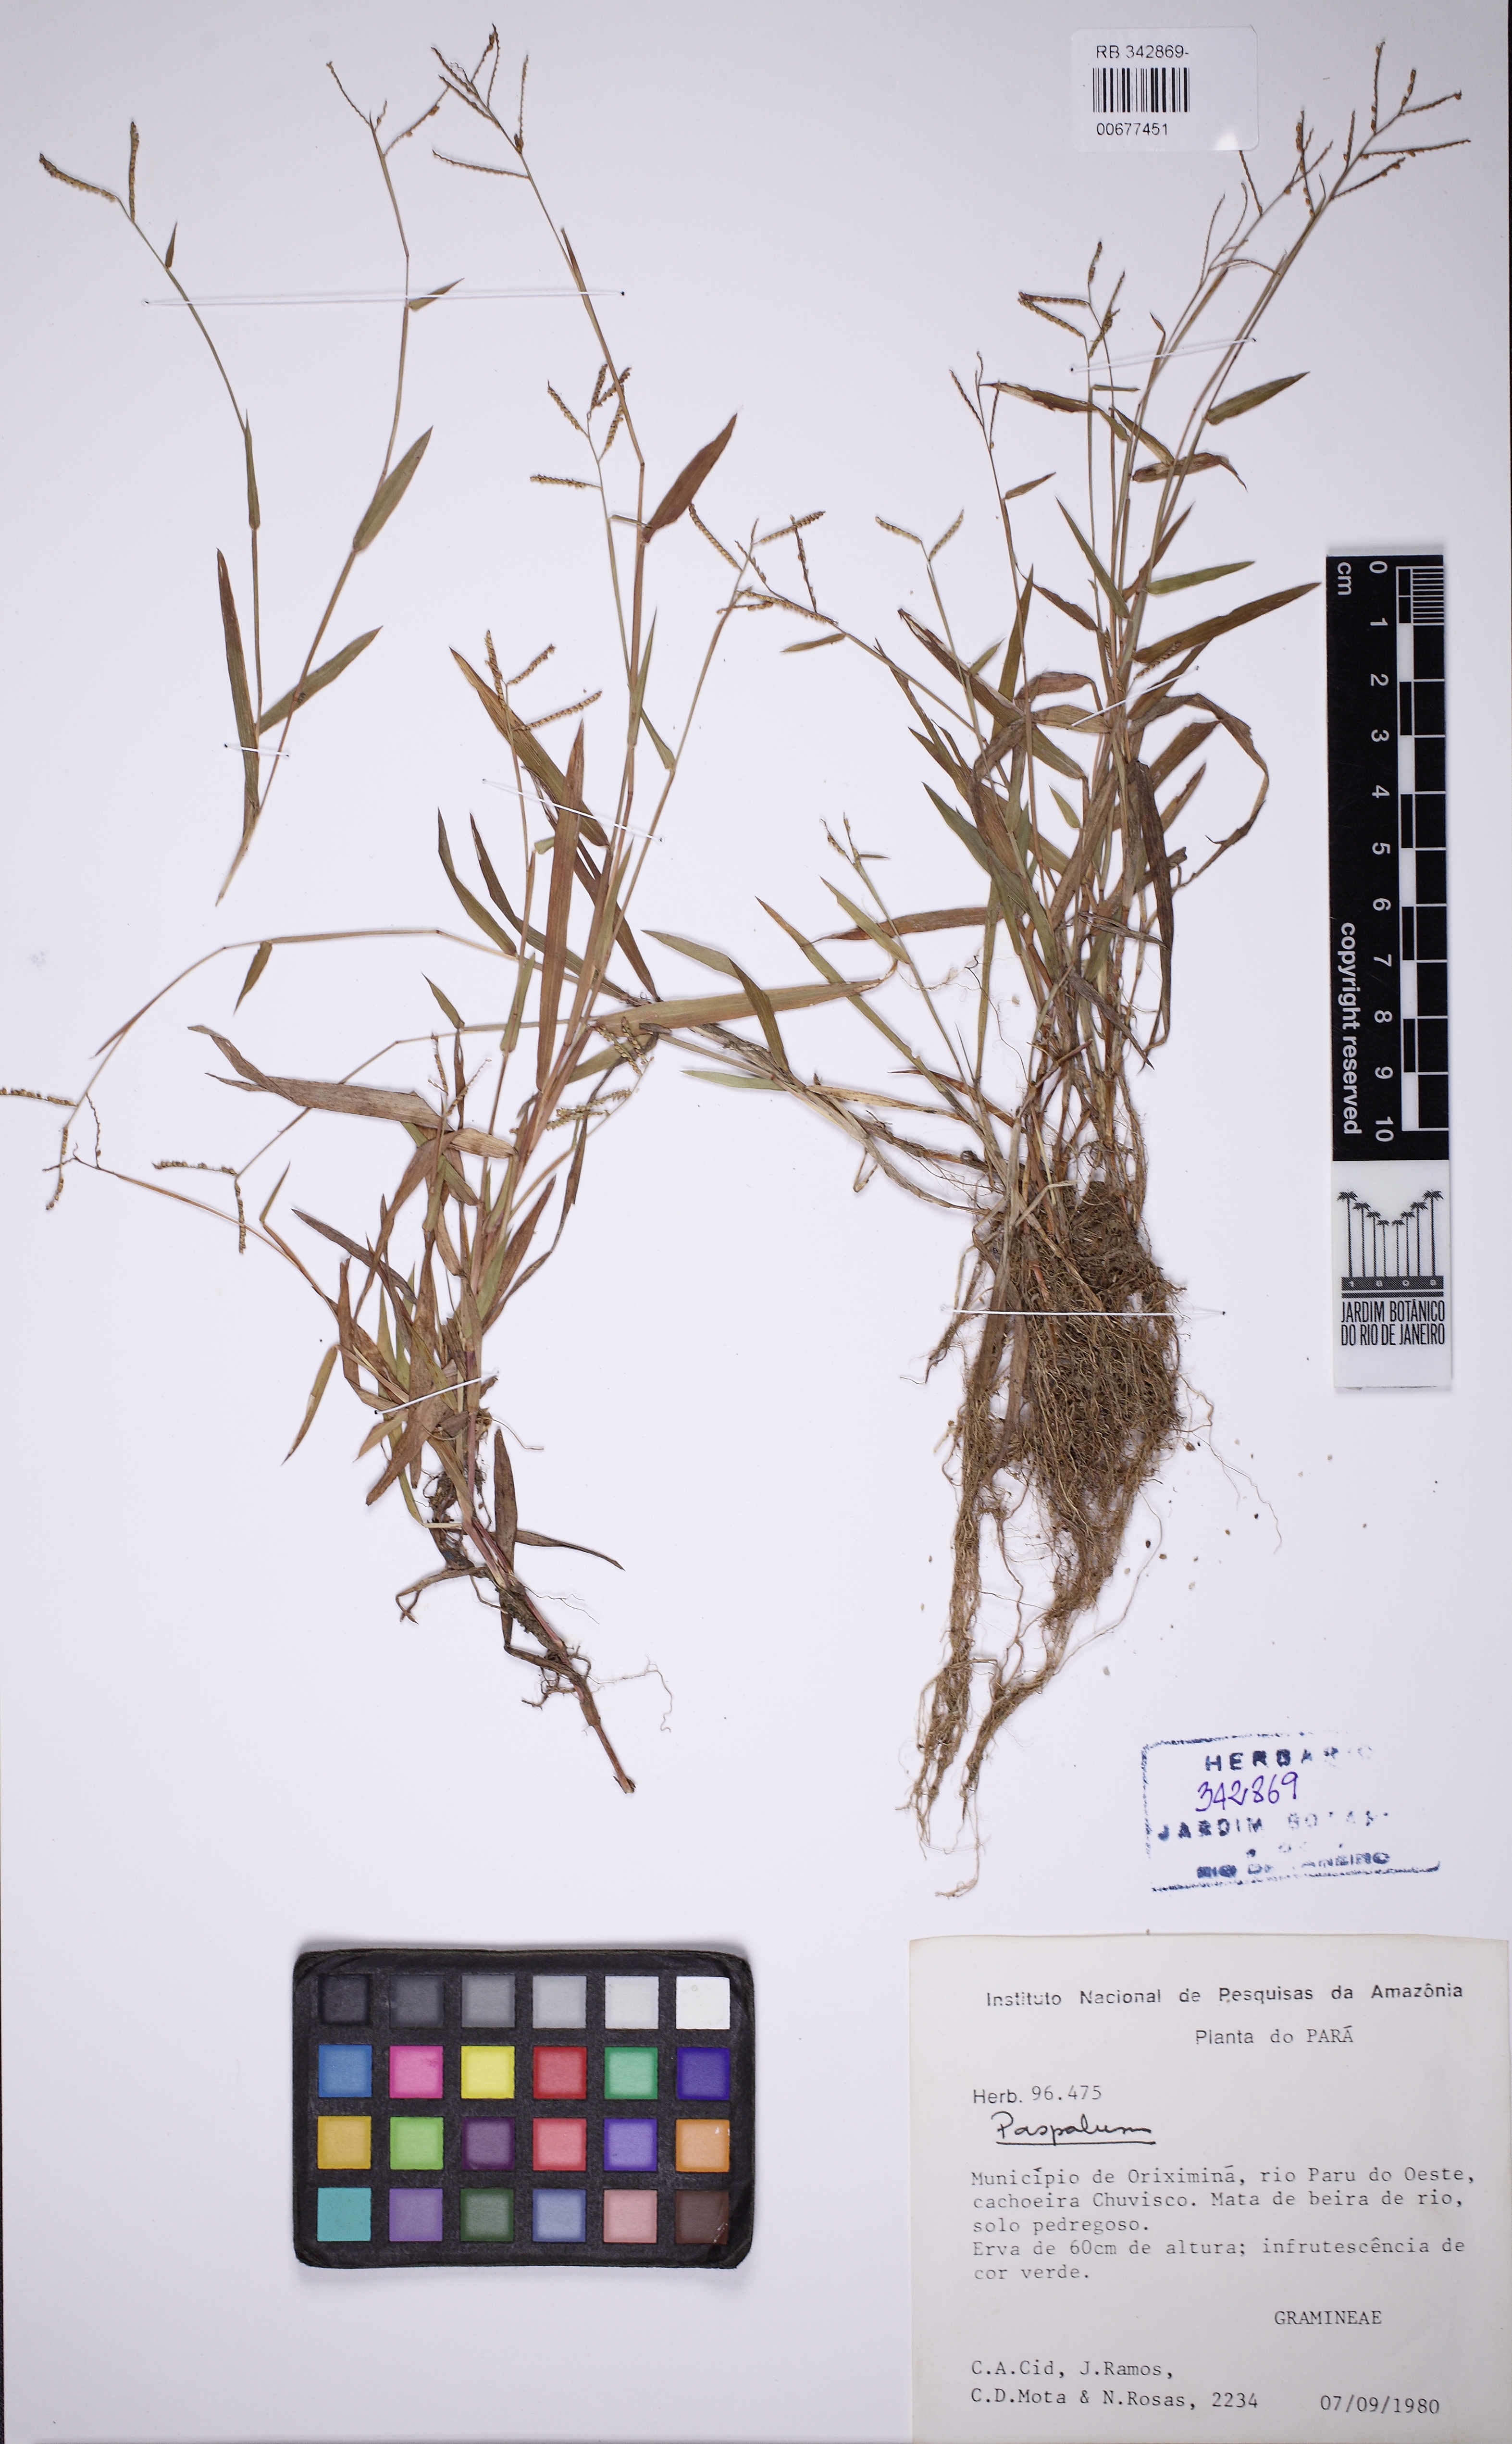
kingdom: Plantae
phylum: Tracheophyta
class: Liliopsida
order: Poales
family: Poaceae
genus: Paspalum
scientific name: Paspalum hyalinum
